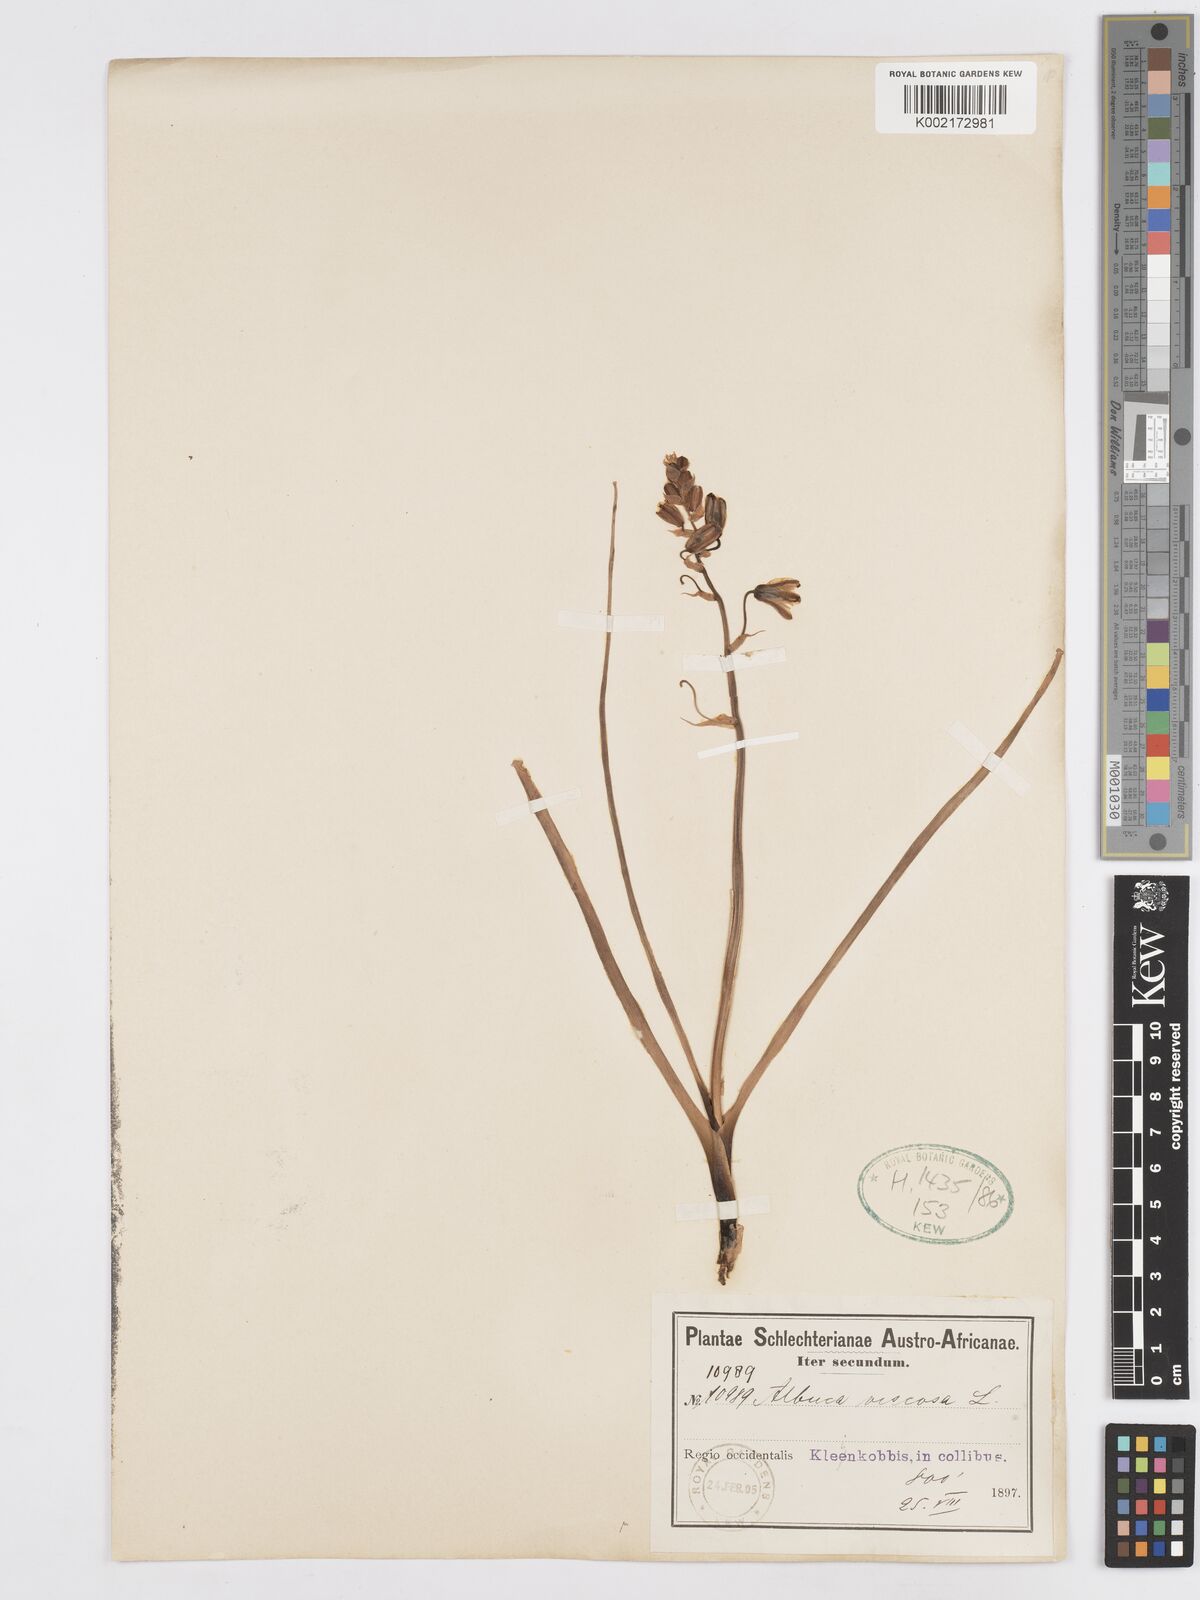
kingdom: Plantae
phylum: Tracheophyta
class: Liliopsida
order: Asparagales
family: Asparagaceae
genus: Albuca
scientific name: Albuca viscosa
